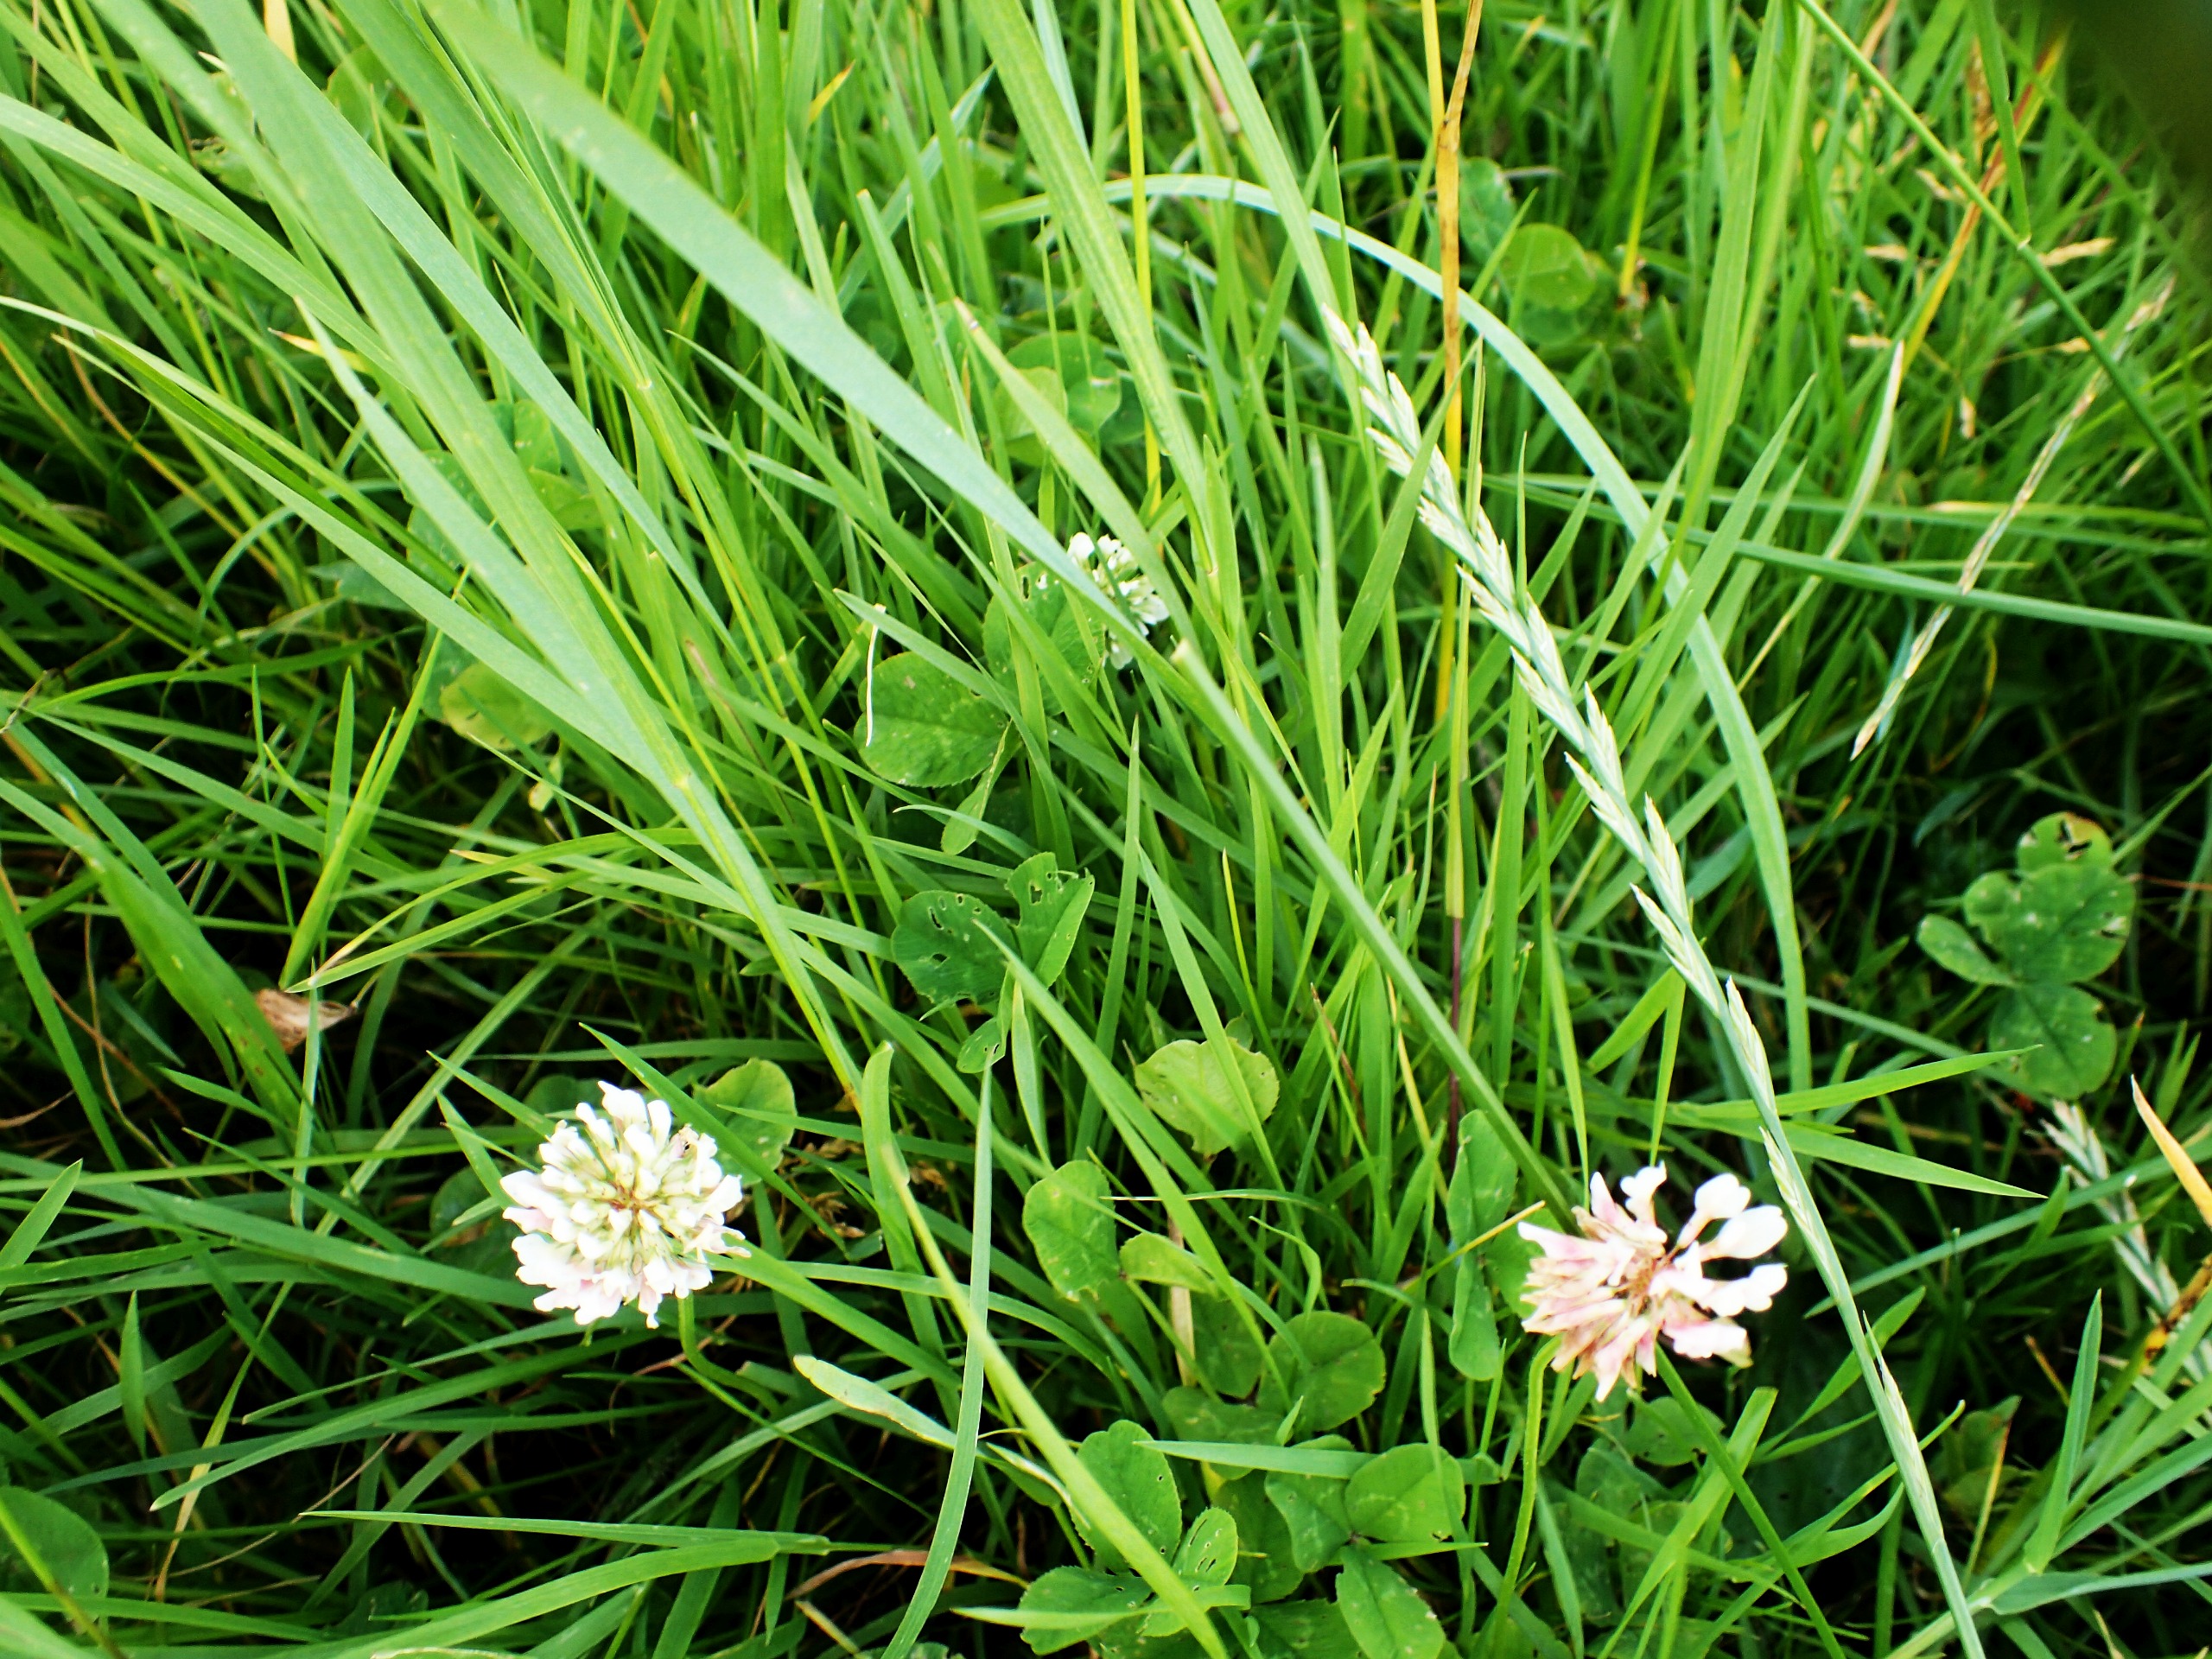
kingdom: Plantae
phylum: Tracheophyta
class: Magnoliopsida
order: Fabales
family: Fabaceae
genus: Trifolium
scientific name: Trifolium repens
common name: Hvid-kløver
